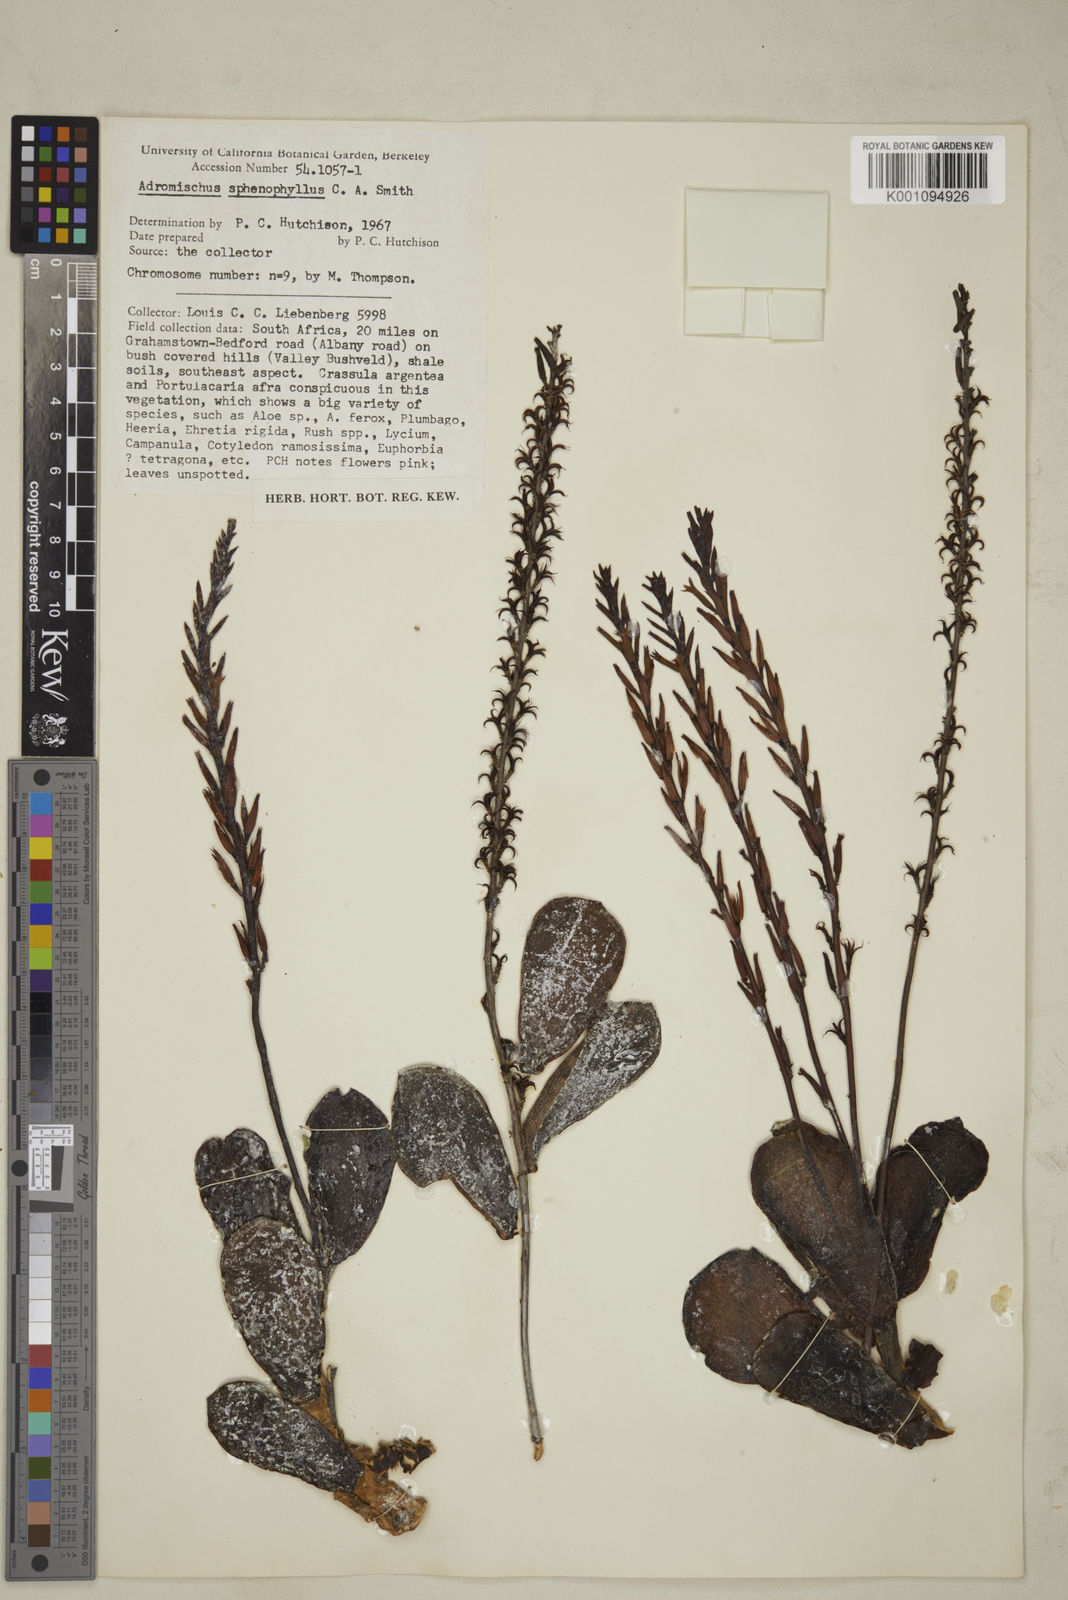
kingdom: Plantae
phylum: Tracheophyta
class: Magnoliopsida
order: Saxifragales
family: Crassulaceae
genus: Adromischus
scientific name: Adromischus sphenophyllus
